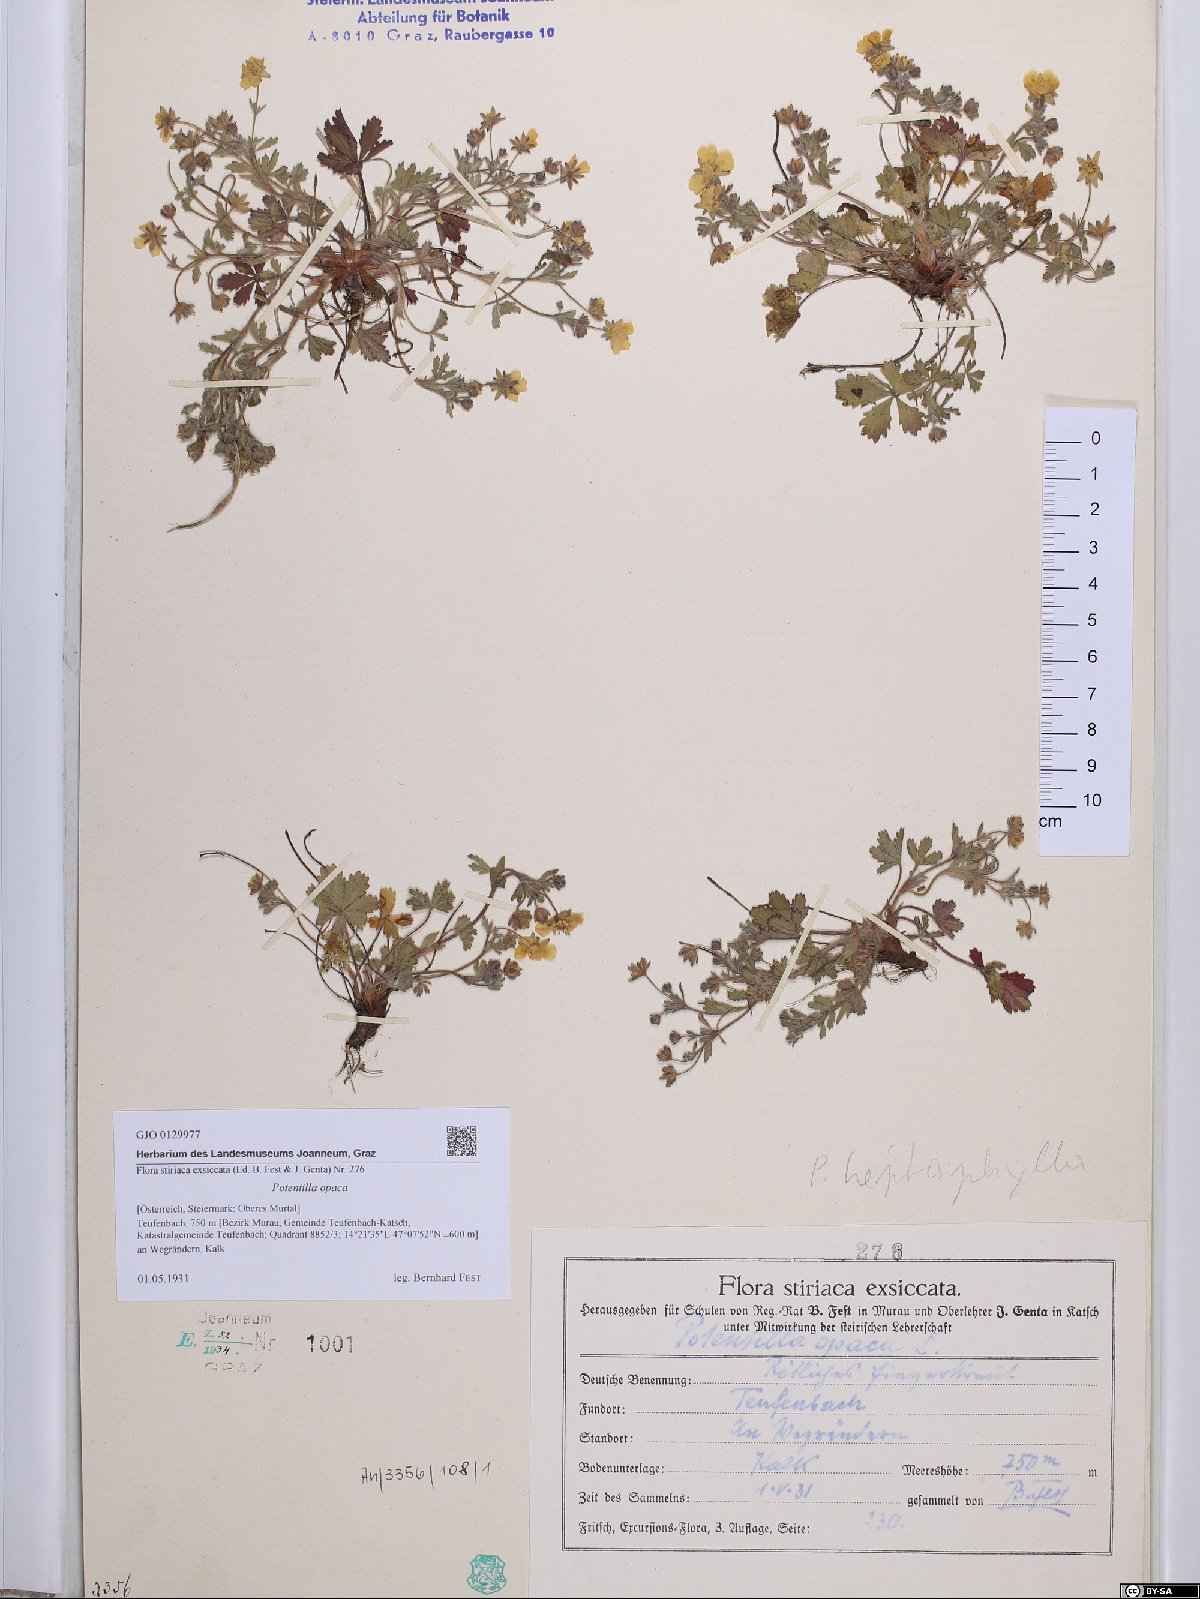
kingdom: Plantae
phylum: Tracheophyta
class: Magnoliopsida
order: Rosales
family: Rosaceae
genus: Potentilla
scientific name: Potentilla
